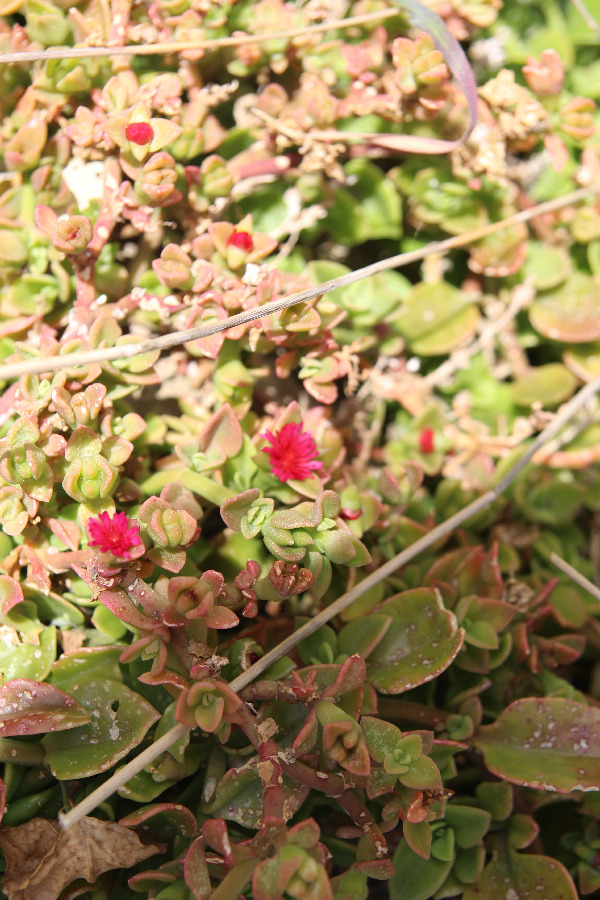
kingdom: Plantae
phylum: Tracheophyta
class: Magnoliopsida
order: Caryophyllales
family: Aizoaceae
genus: Mesembryanthemum
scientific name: Mesembryanthemum cordifolium
